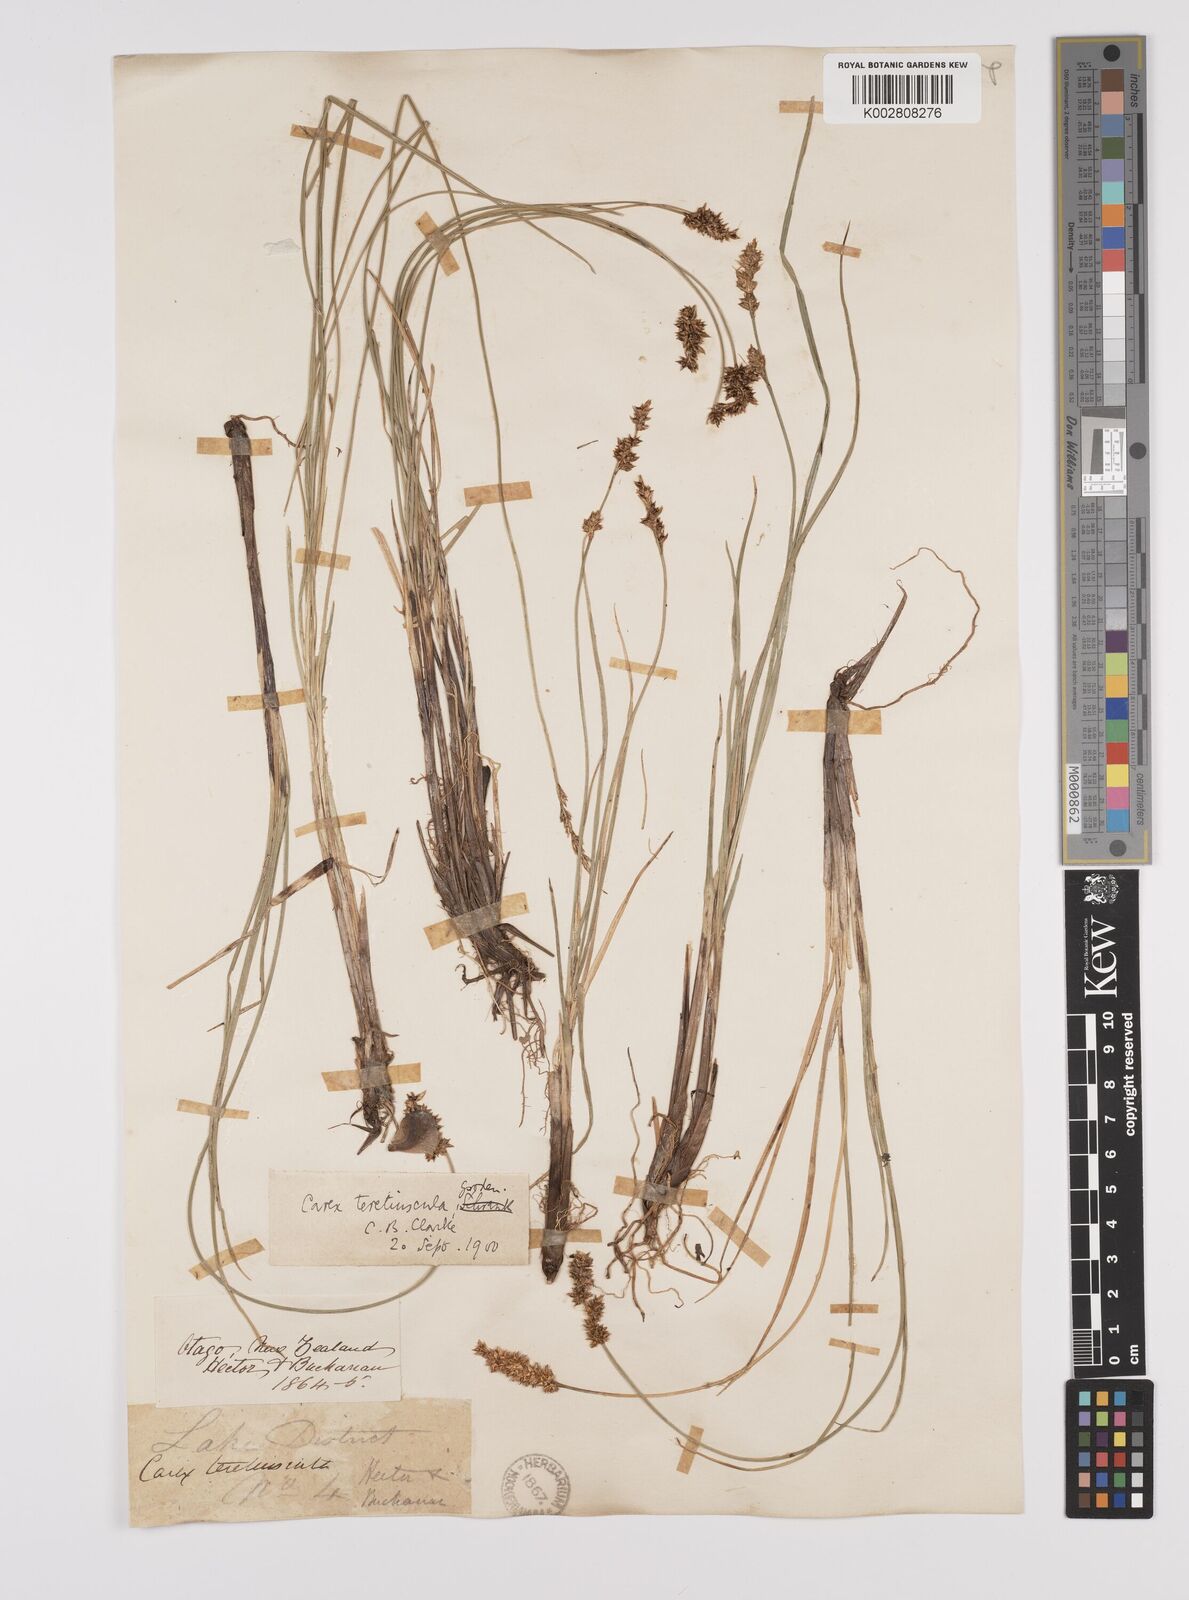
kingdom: Plantae
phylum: Tracheophyta
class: Liliopsida
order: Poales
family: Cyperaceae
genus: Carex
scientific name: Carex diandra
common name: Lesser tussock-sedge
